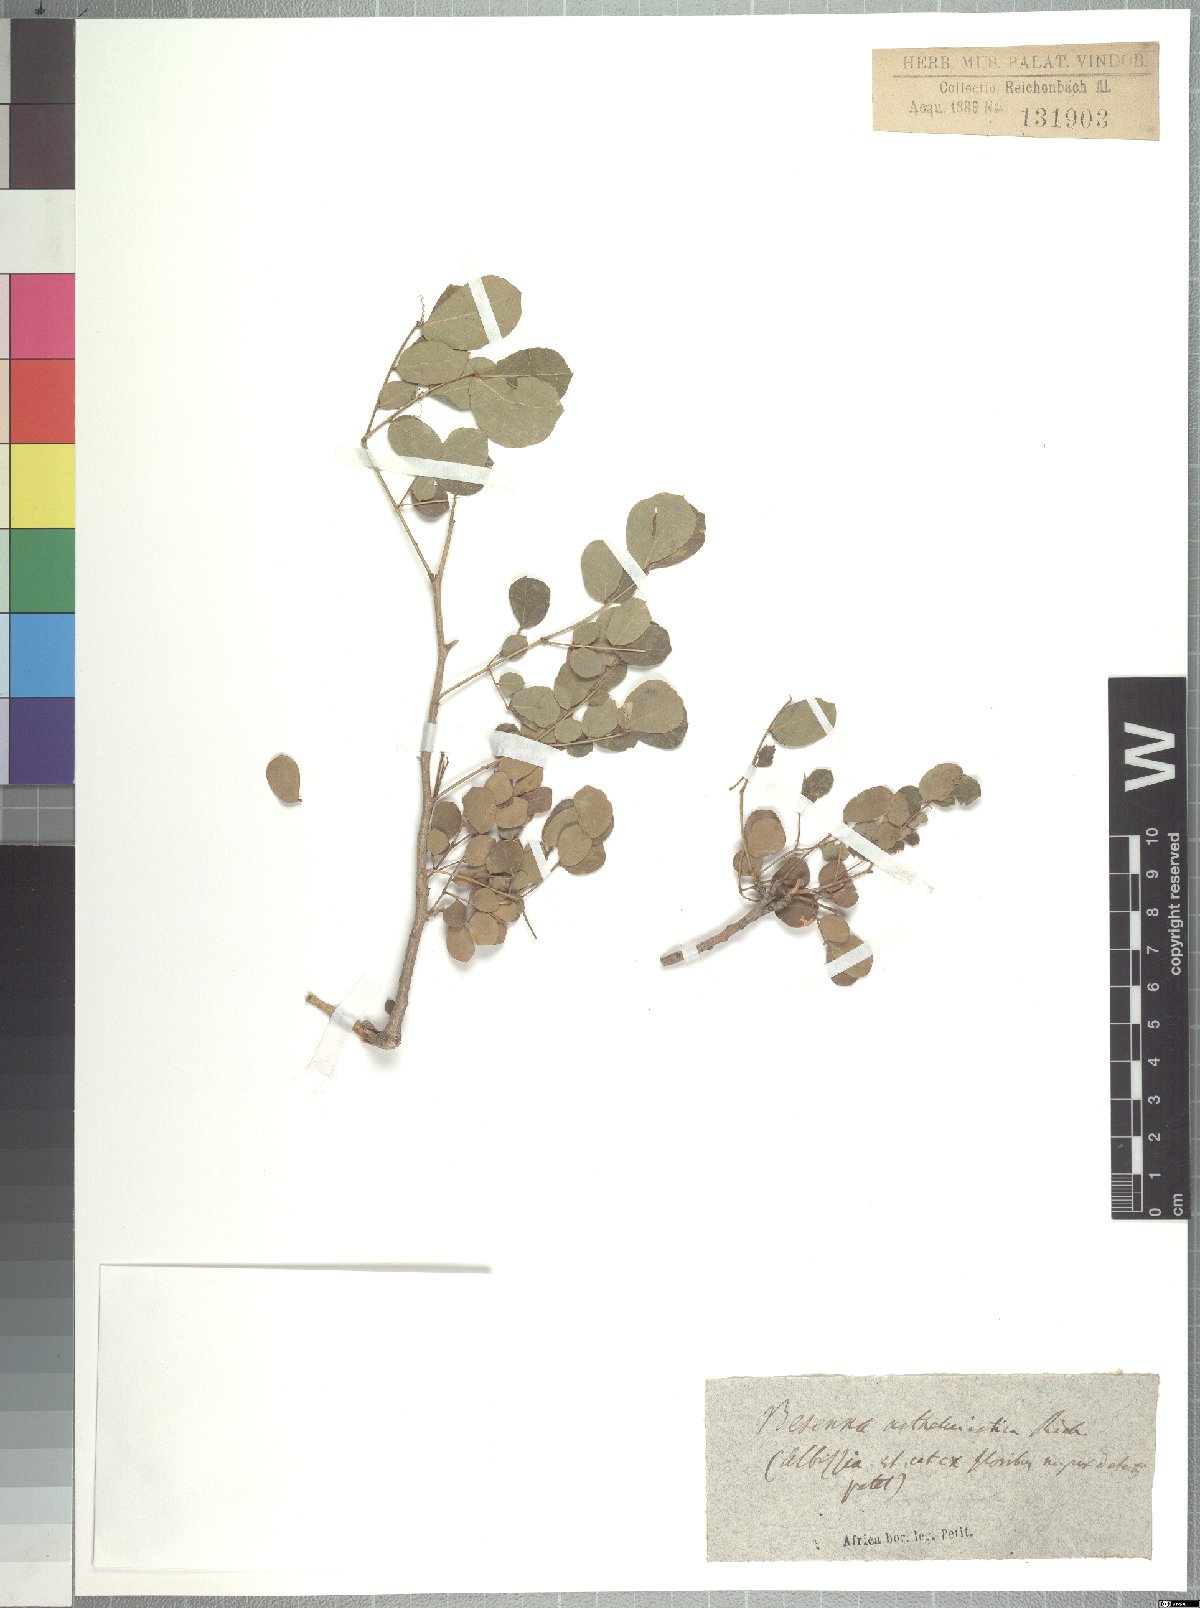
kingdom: Plantae
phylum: Tracheophyta
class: Magnoliopsida
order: Fabales
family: Fabaceae
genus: Albizia
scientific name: Albizia anthelmintica
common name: Worm-bark false-thorn
